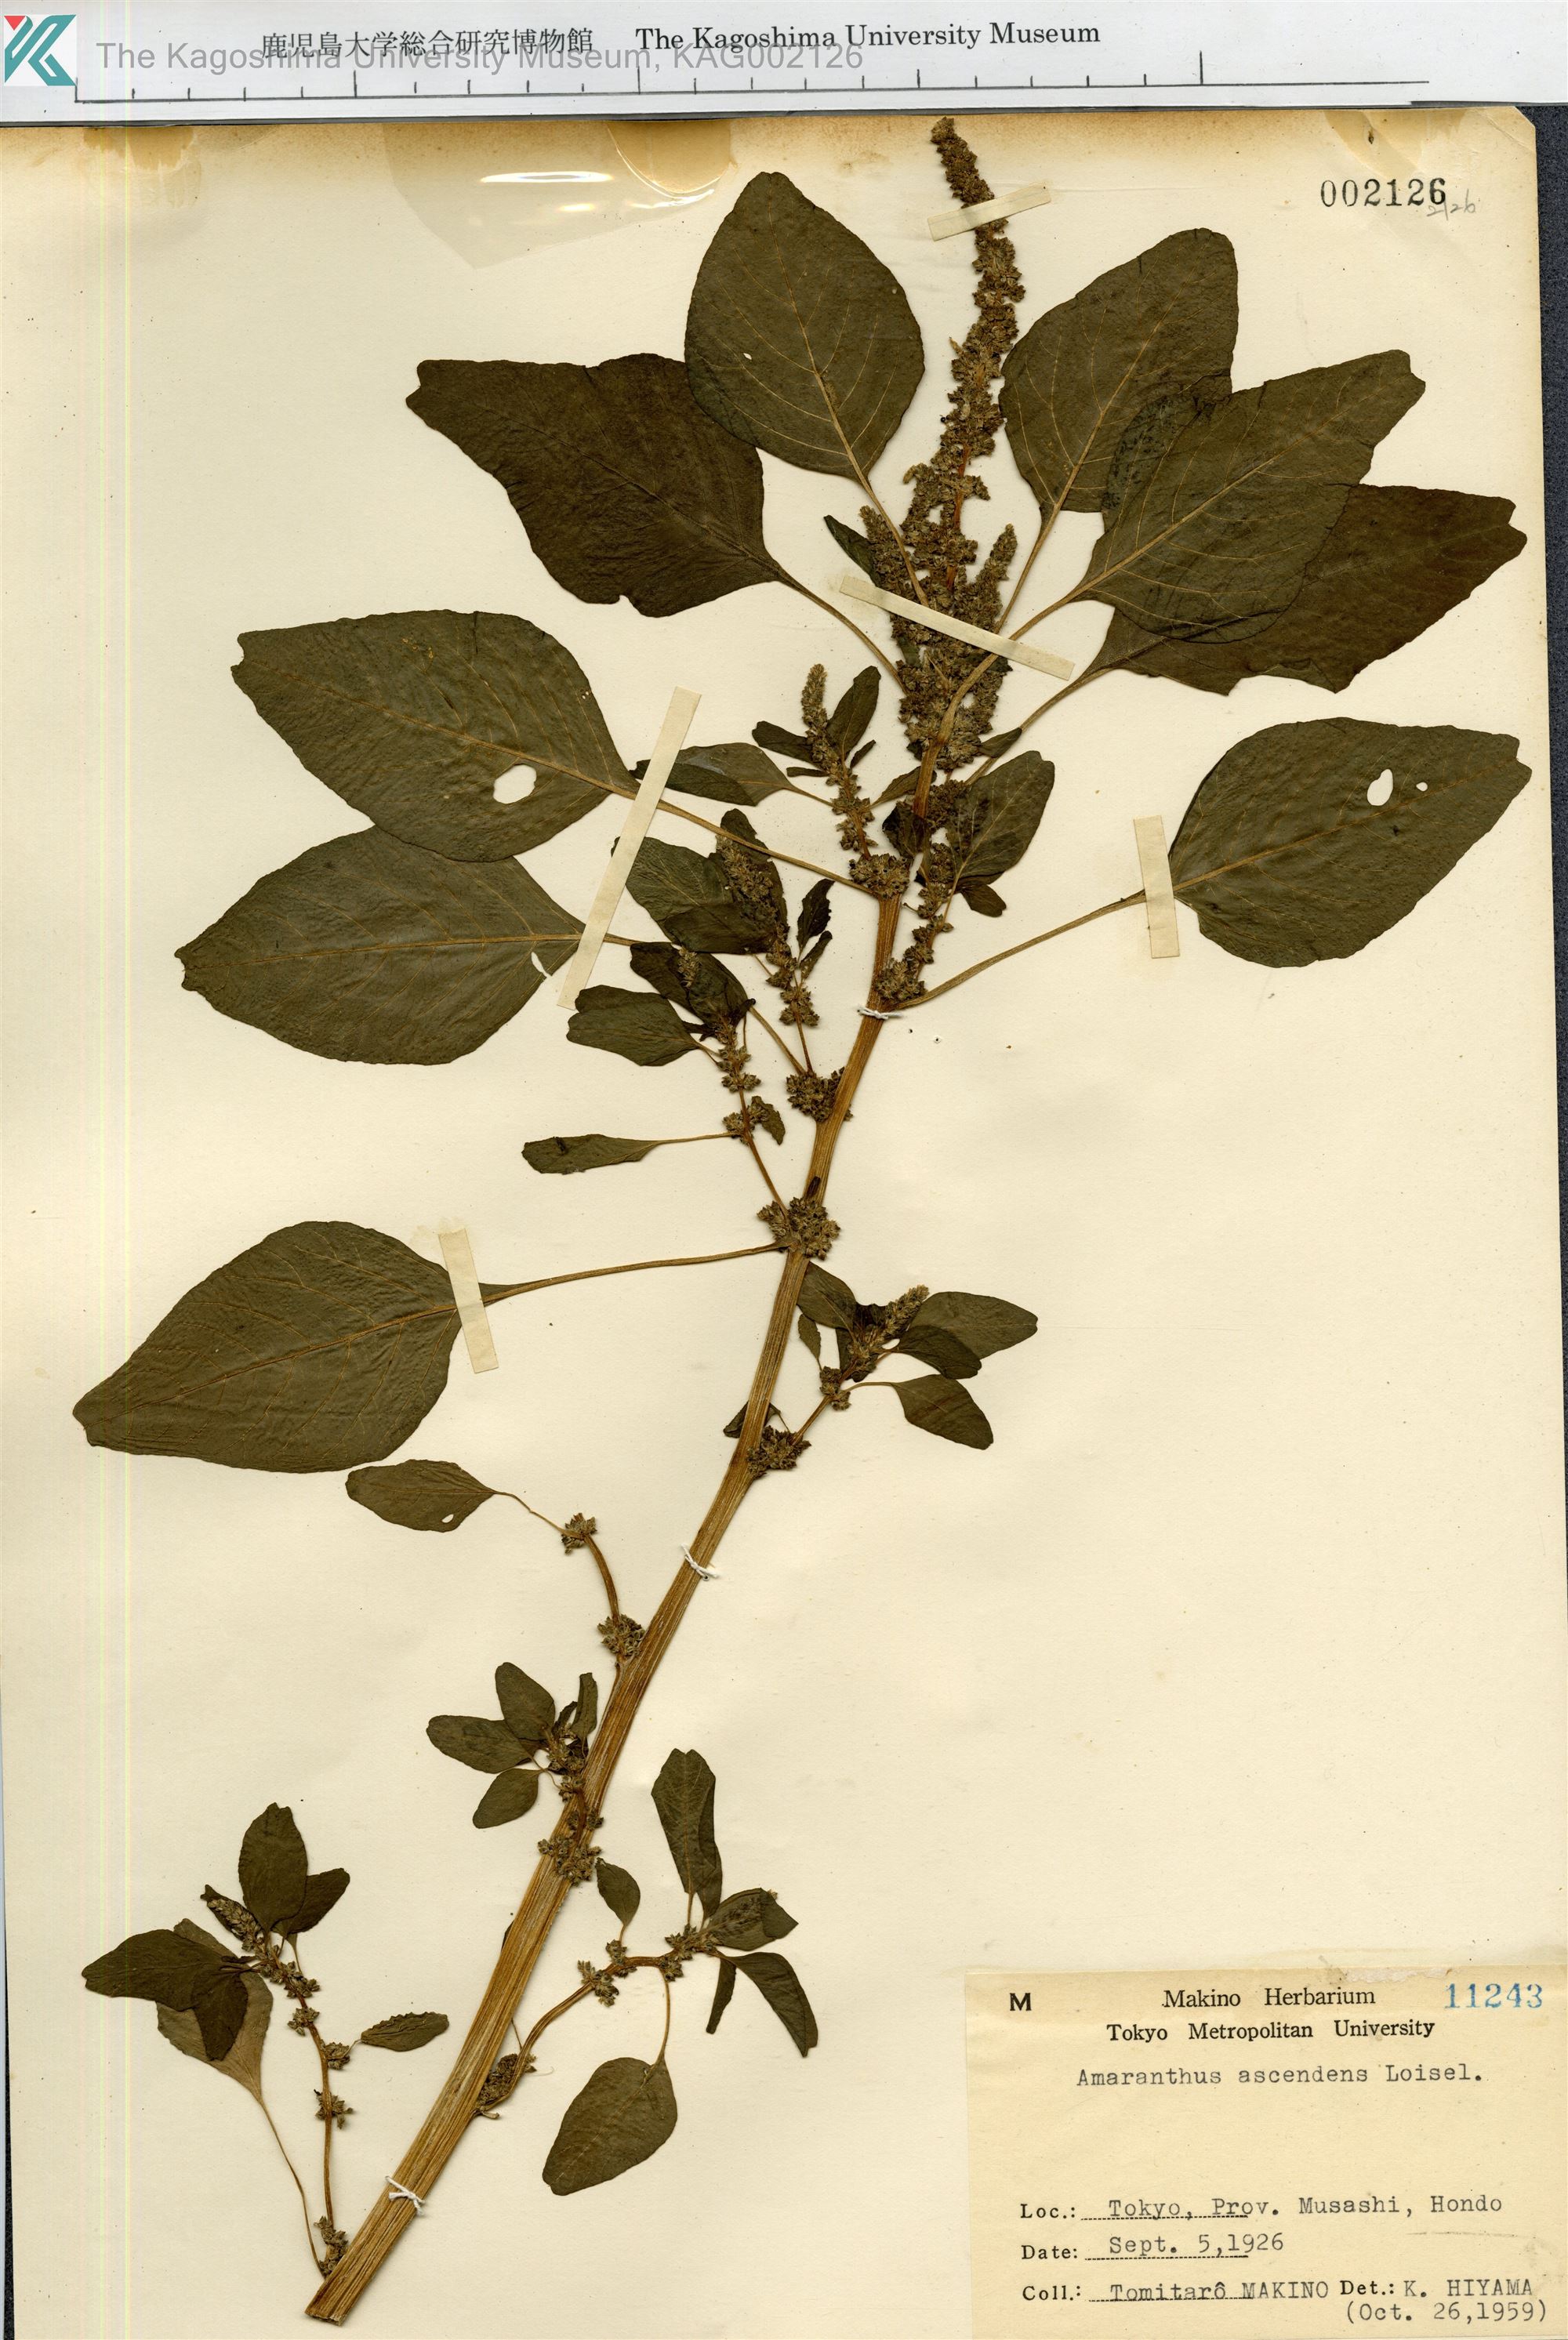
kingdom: Plantae
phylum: Tracheophyta
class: Magnoliopsida
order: Caryophyllales
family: Amaranthaceae
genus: Amaranthus
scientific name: Amaranthus blitum
